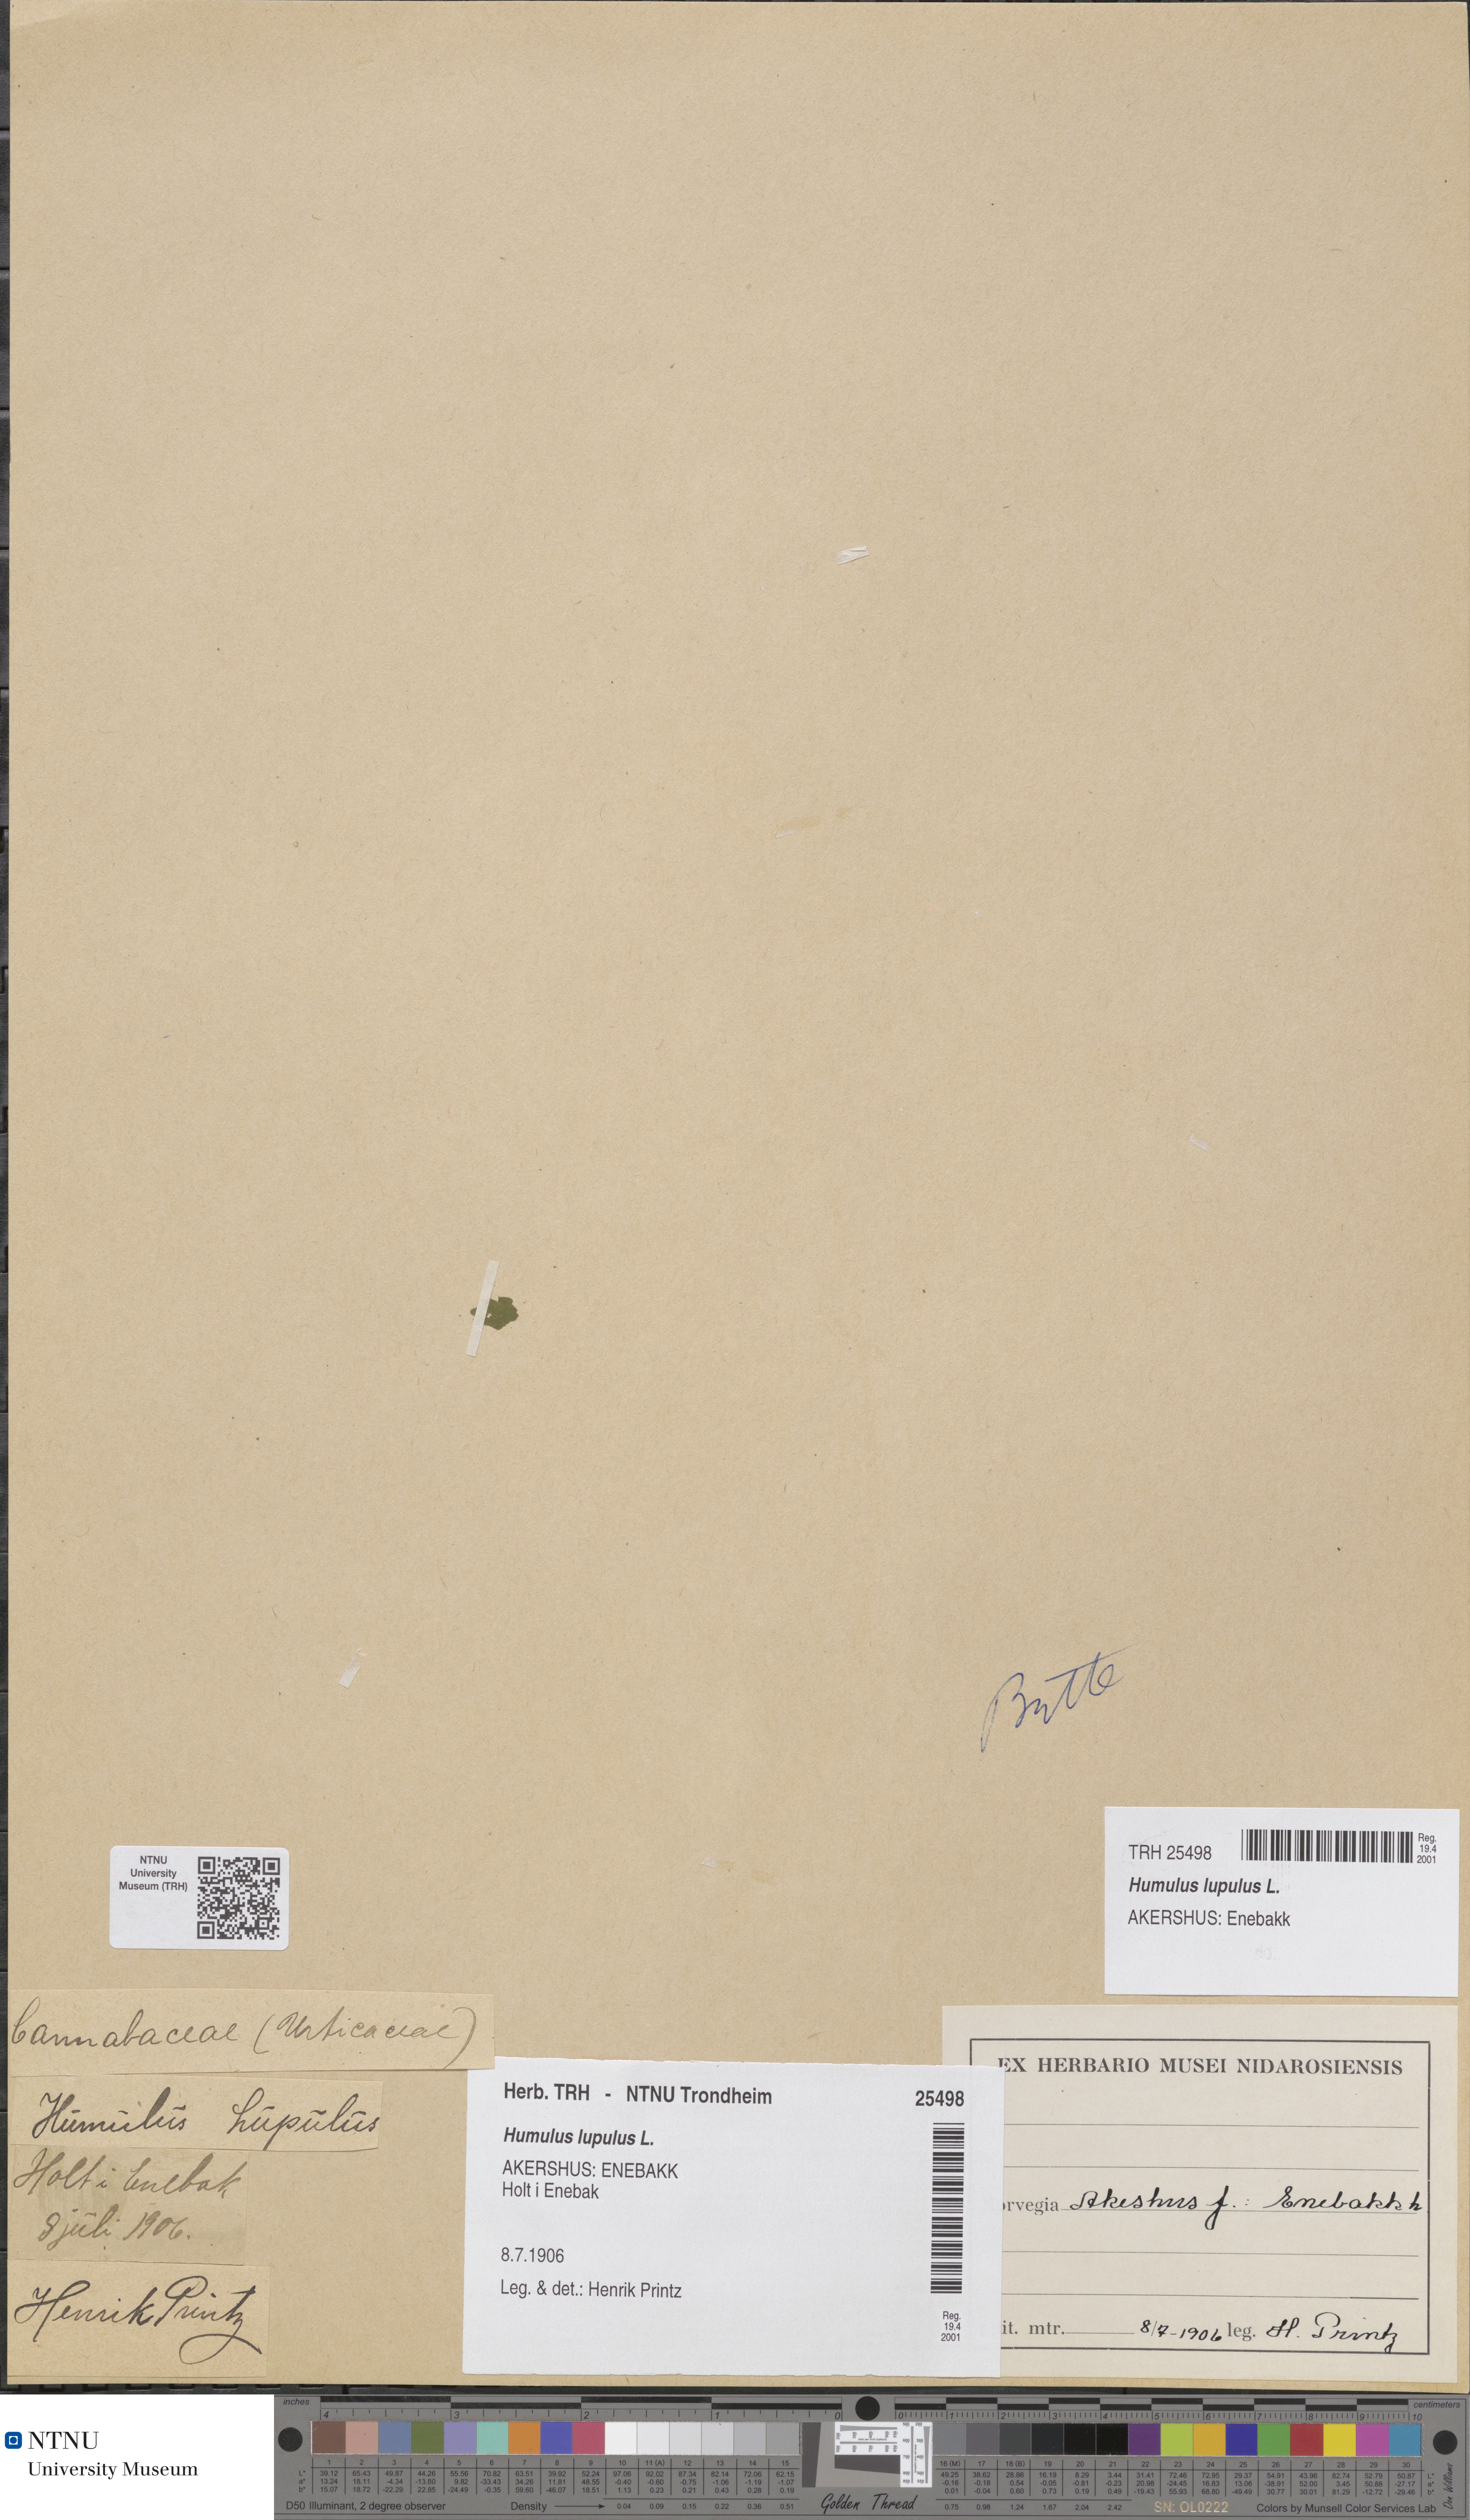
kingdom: Plantae
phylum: Tracheophyta
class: Magnoliopsida
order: Rosales
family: Cannabaceae
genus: Humulus
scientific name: Humulus lupulus
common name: Hop
